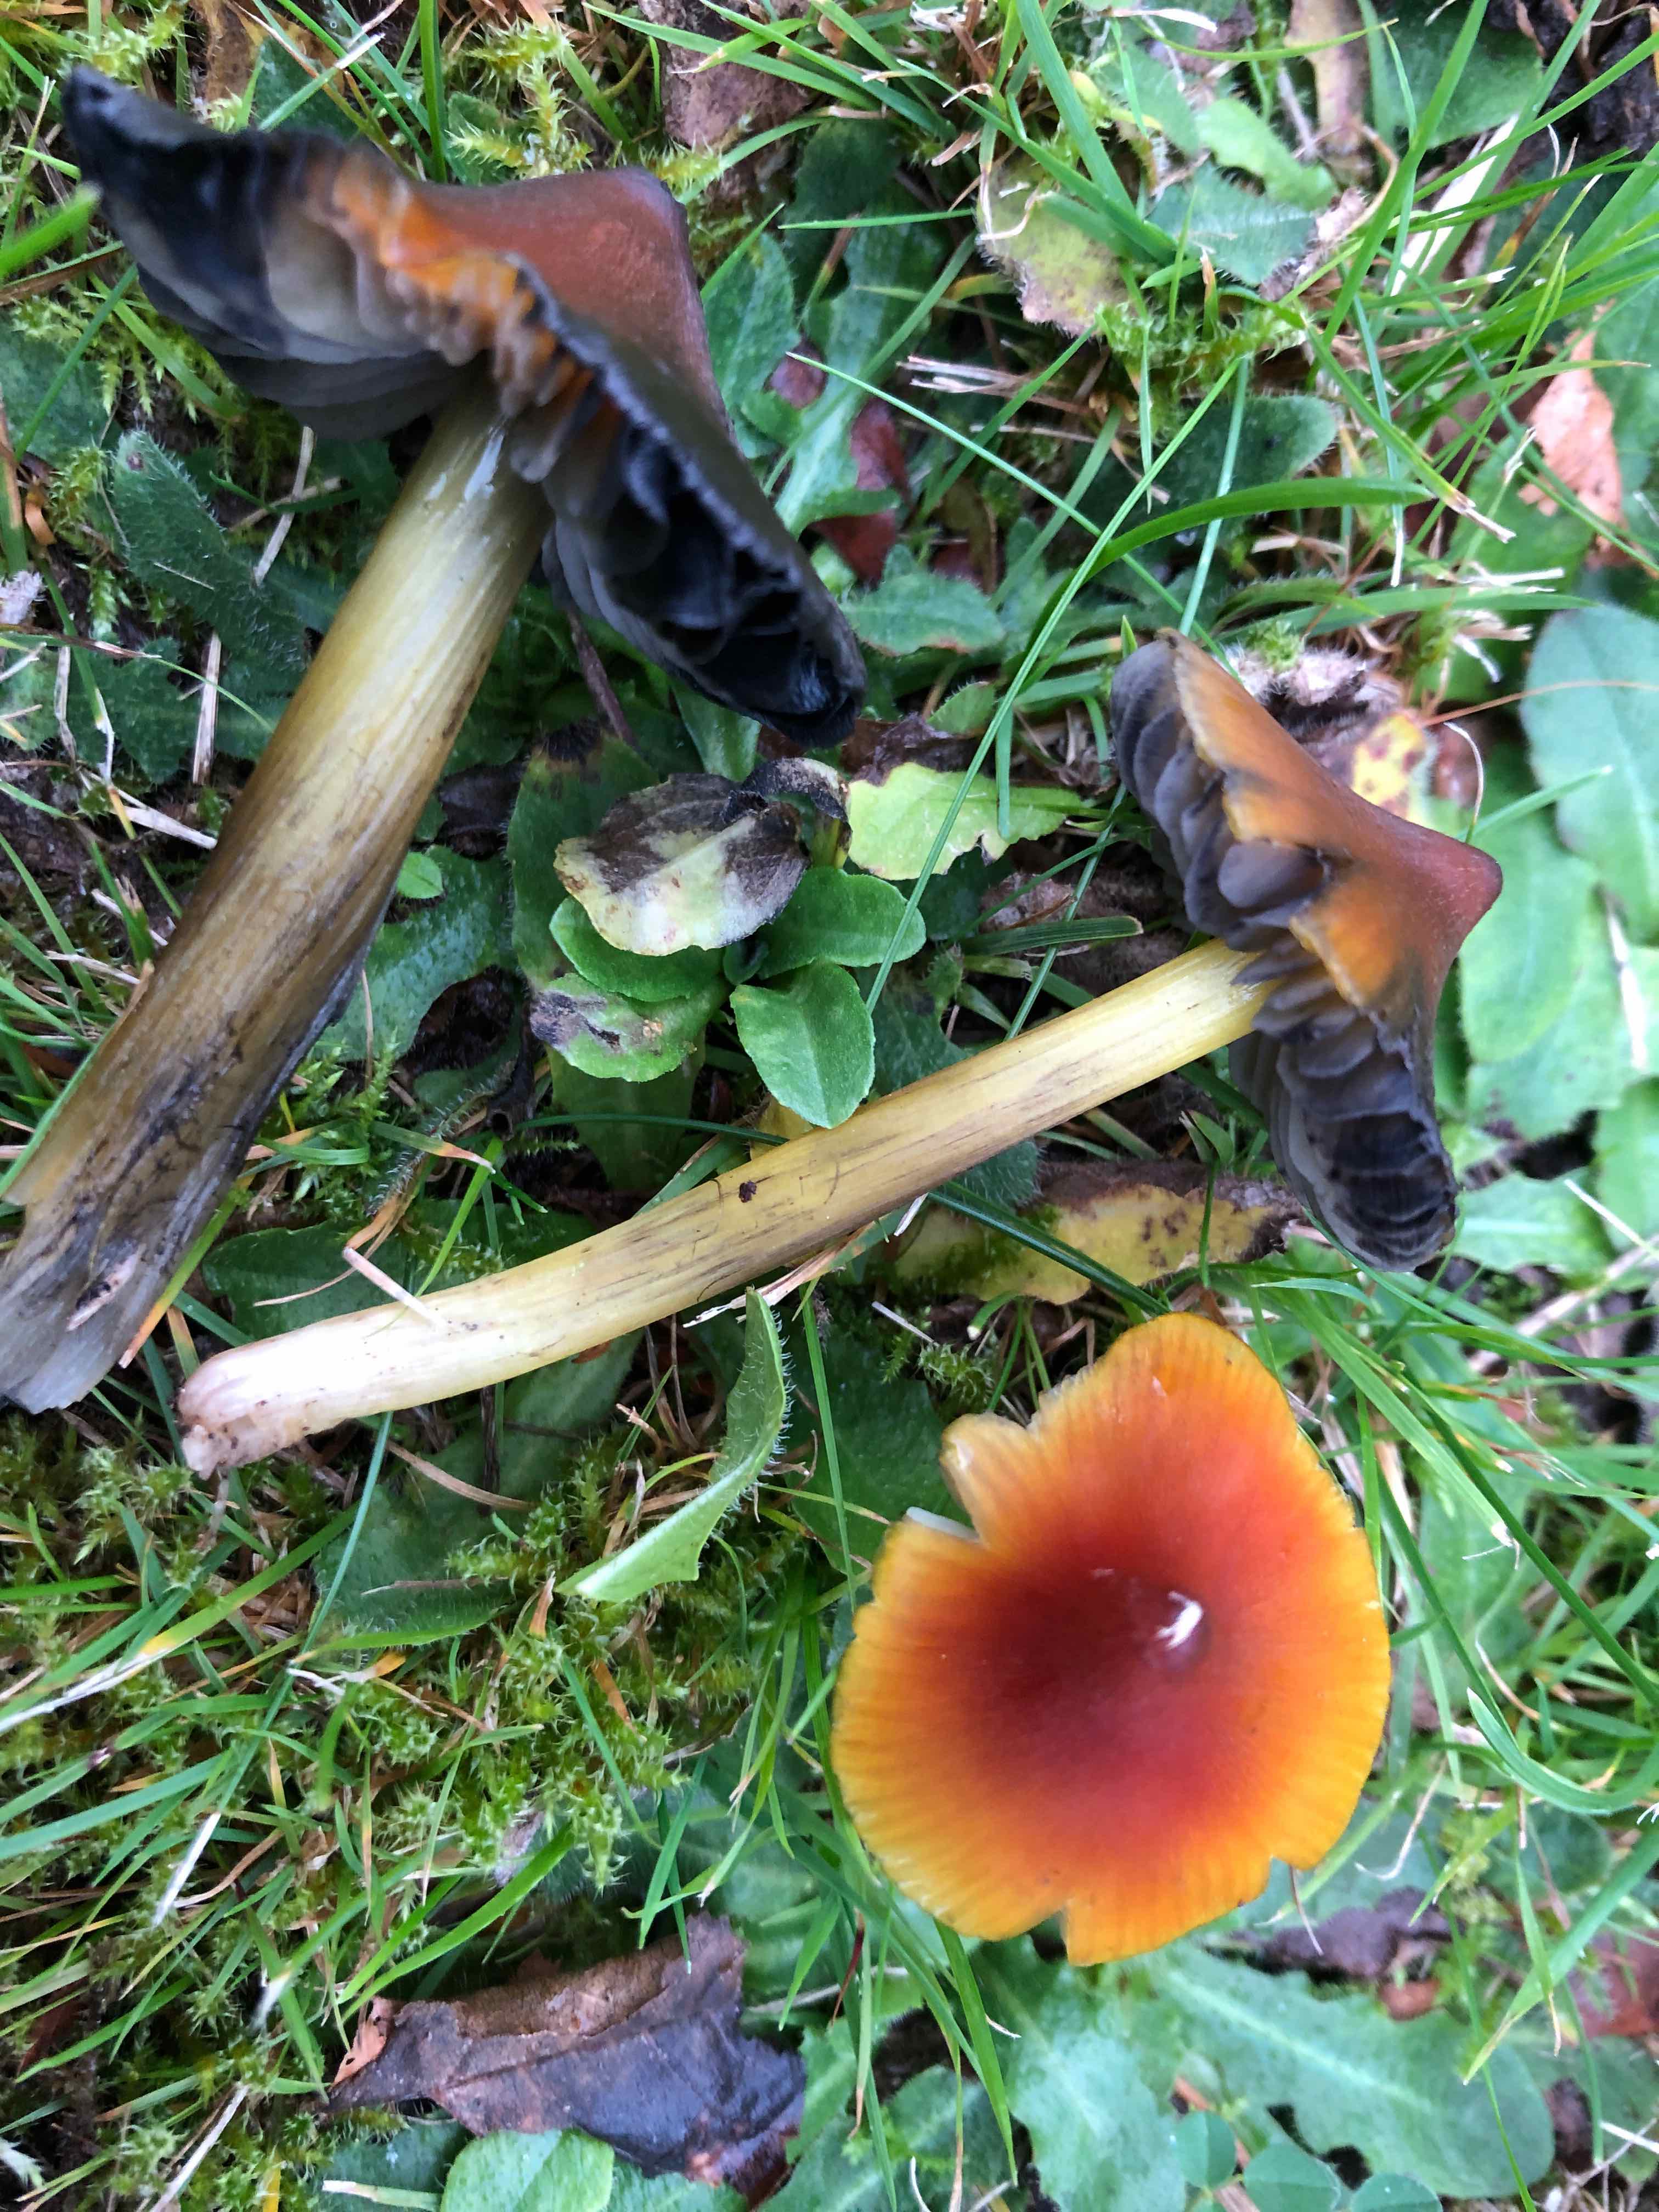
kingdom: Fungi
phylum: Basidiomycota
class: Agaricomycetes
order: Agaricales
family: Hygrophoraceae
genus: Hygrocybe
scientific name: Hygrocybe conica
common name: kegle-vokshat
